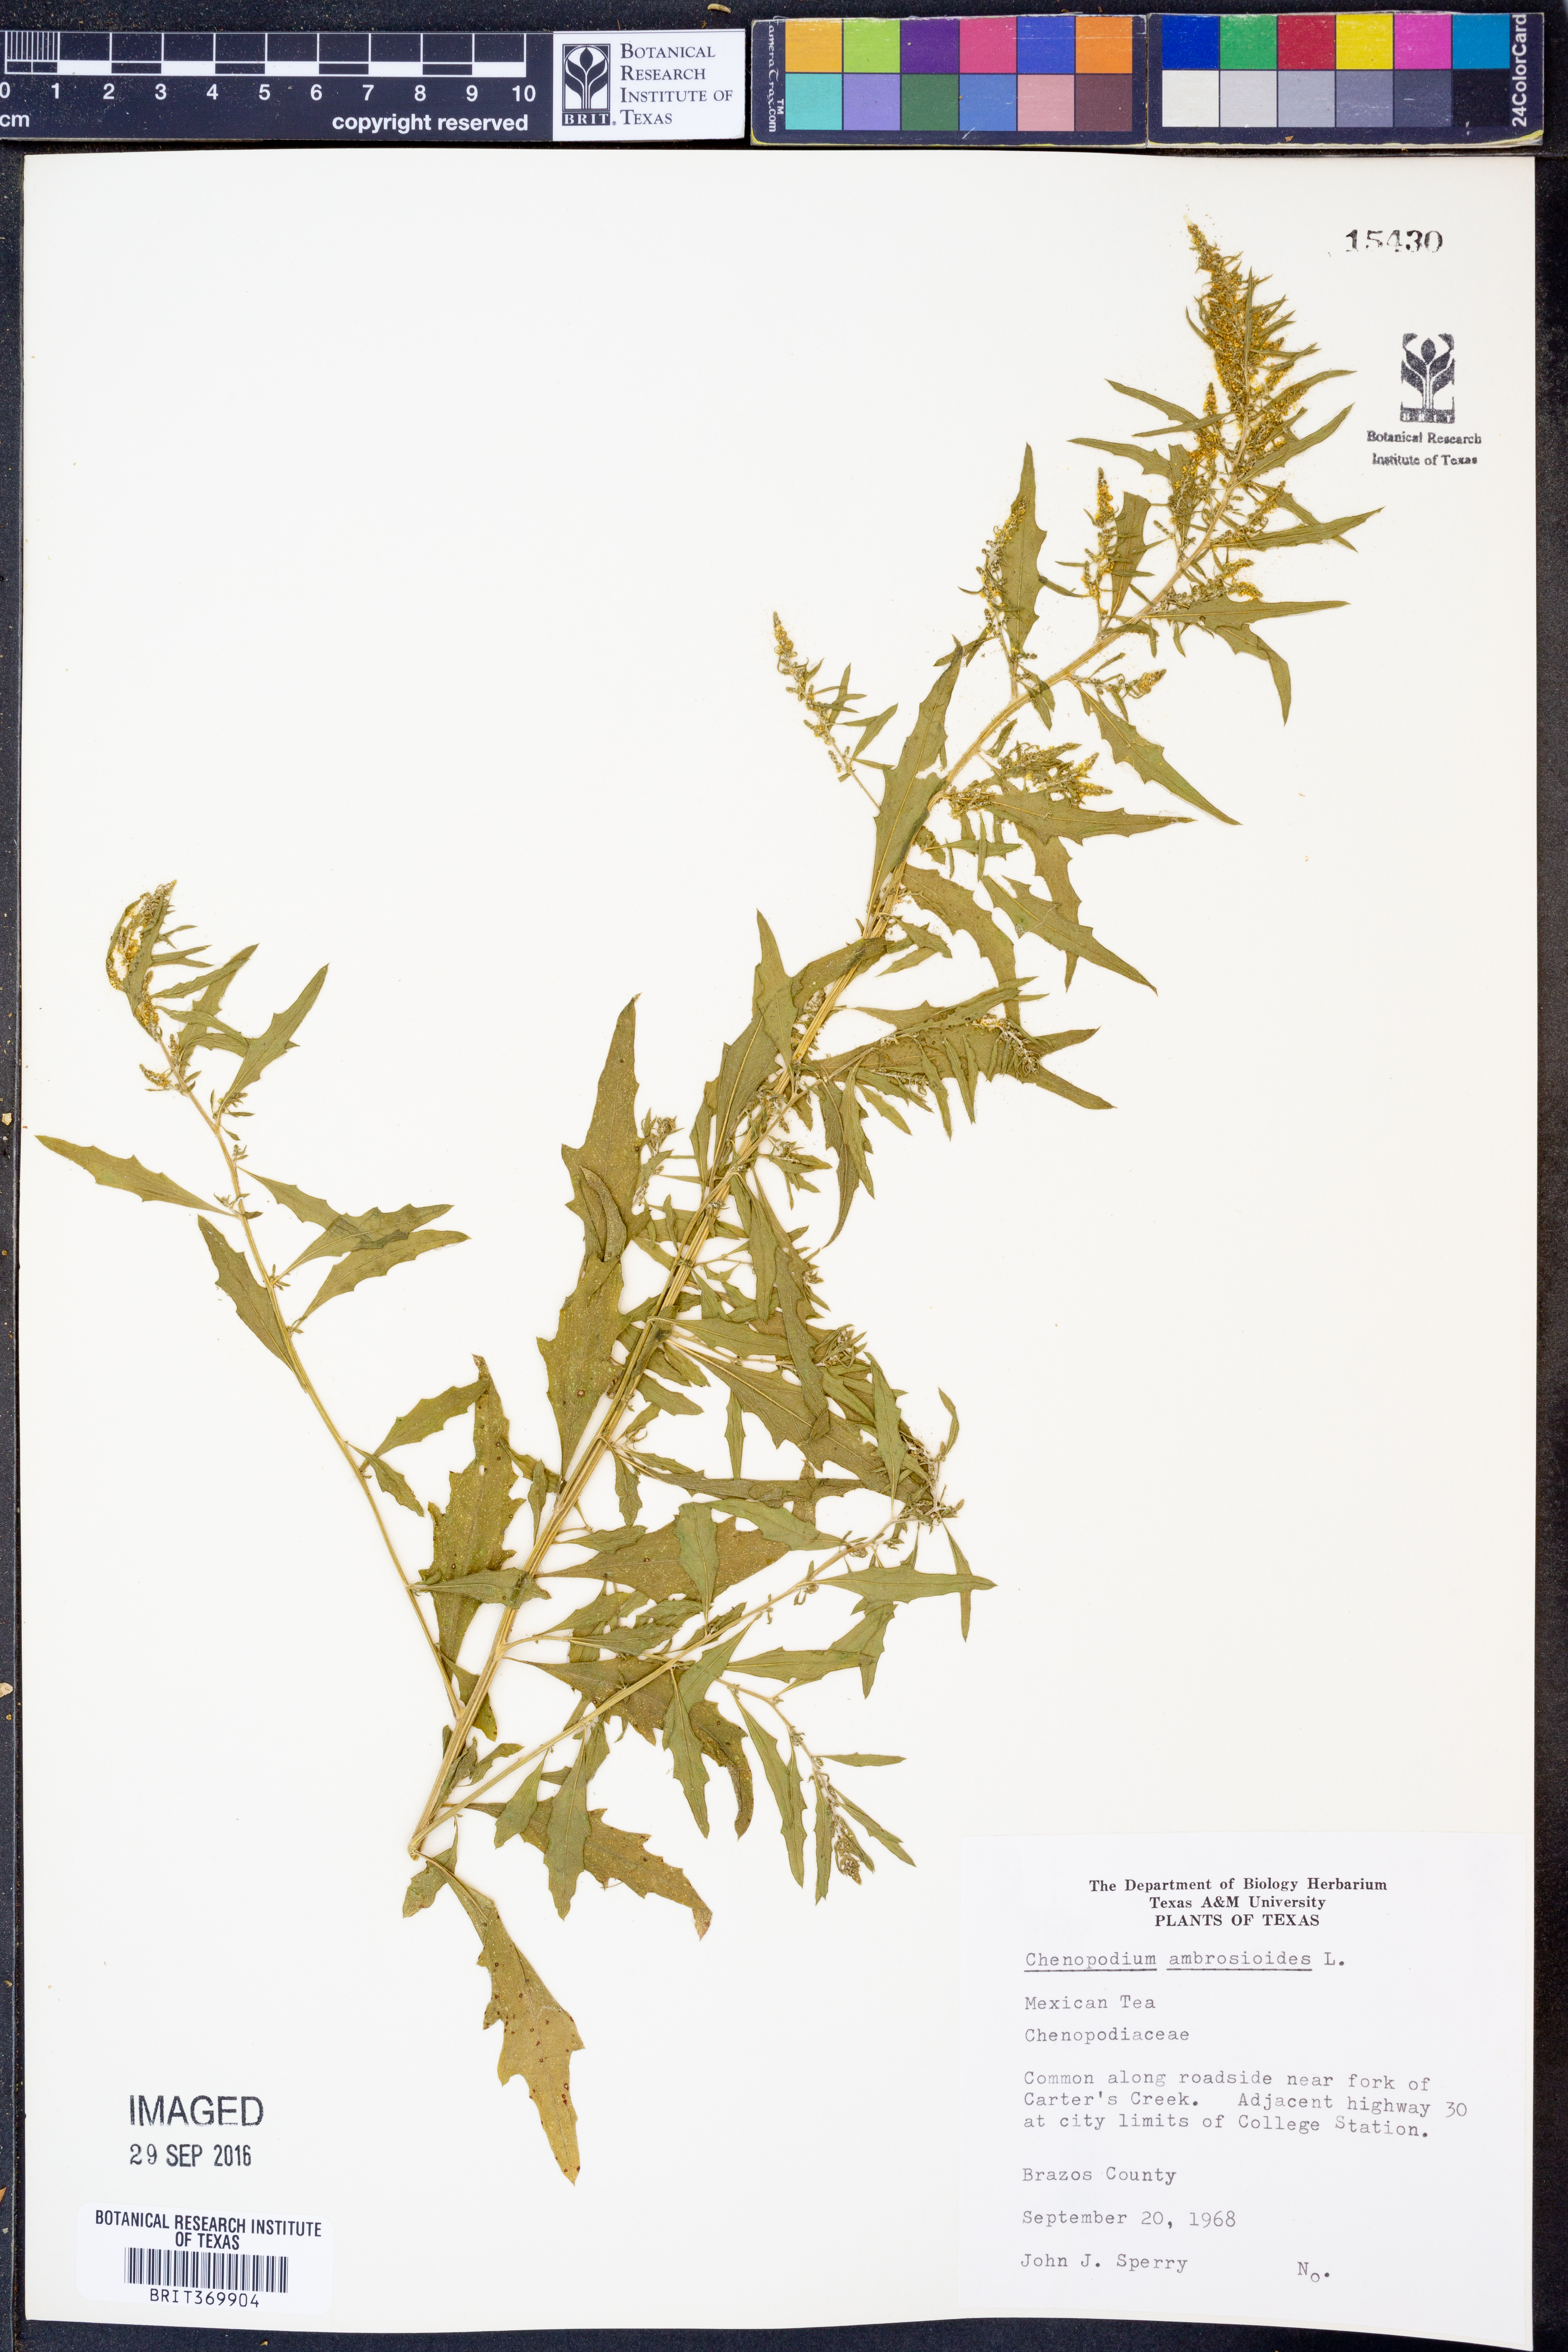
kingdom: Plantae
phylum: Tracheophyta
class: Magnoliopsida
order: Caryophyllales
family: Amaranthaceae
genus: Dysphania
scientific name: Dysphania ambrosioides
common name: Wormseed
